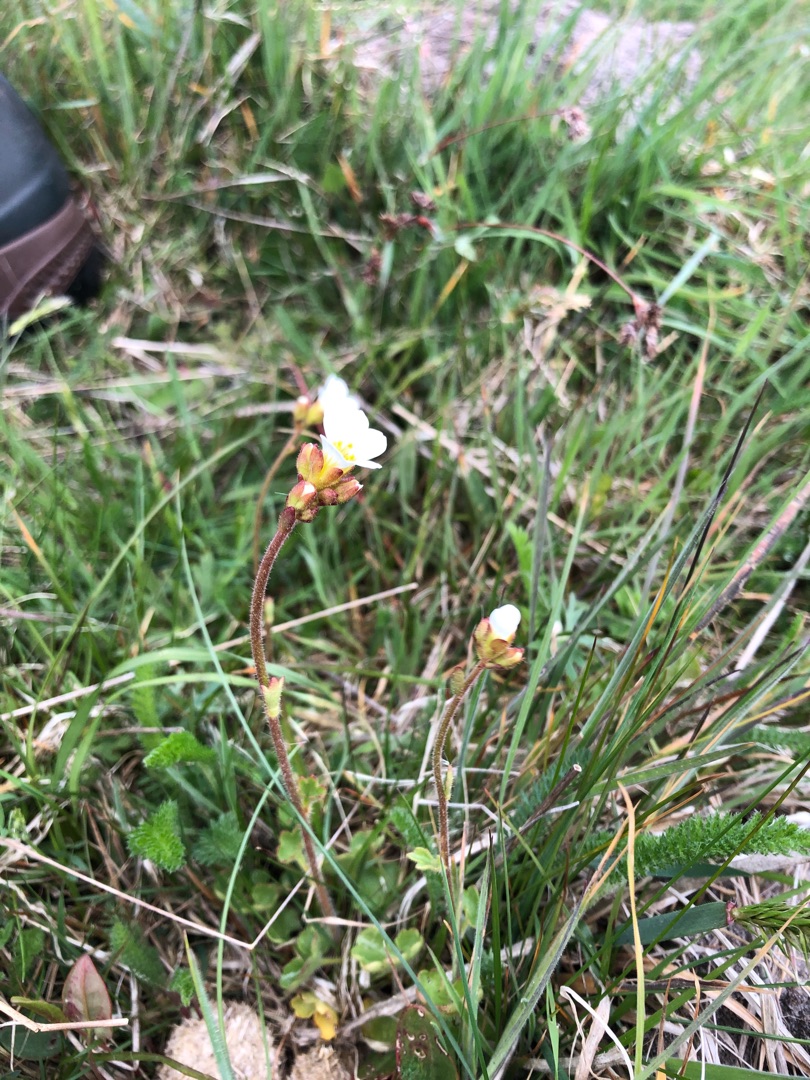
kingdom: Plantae
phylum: Tracheophyta
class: Magnoliopsida
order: Saxifragales
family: Saxifragaceae
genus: Saxifraga
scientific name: Saxifraga granulata
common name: Kornet stenbræk
